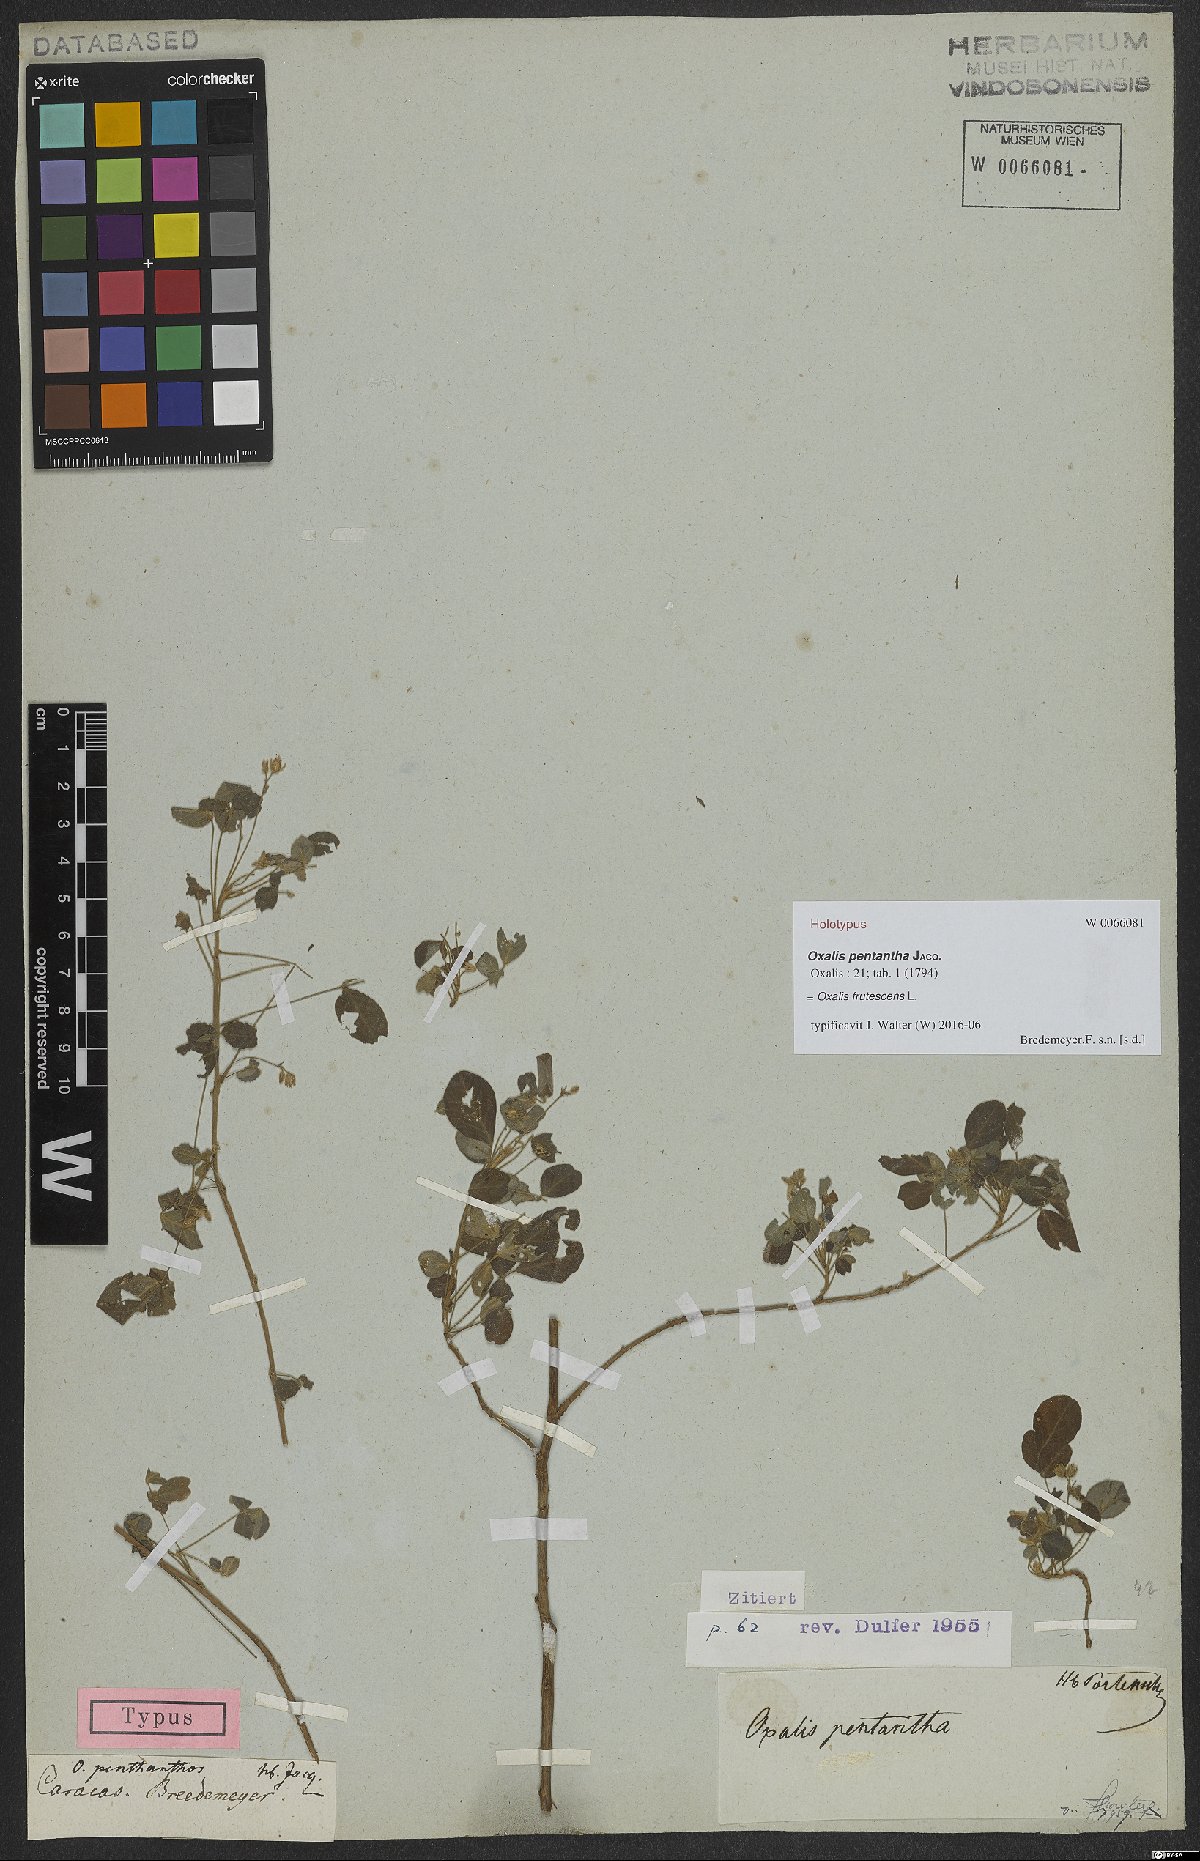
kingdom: Plantae
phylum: Tracheophyta
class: Magnoliopsida
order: Oxalidales
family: Oxalidaceae
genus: Oxalis
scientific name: Oxalis frutescens
